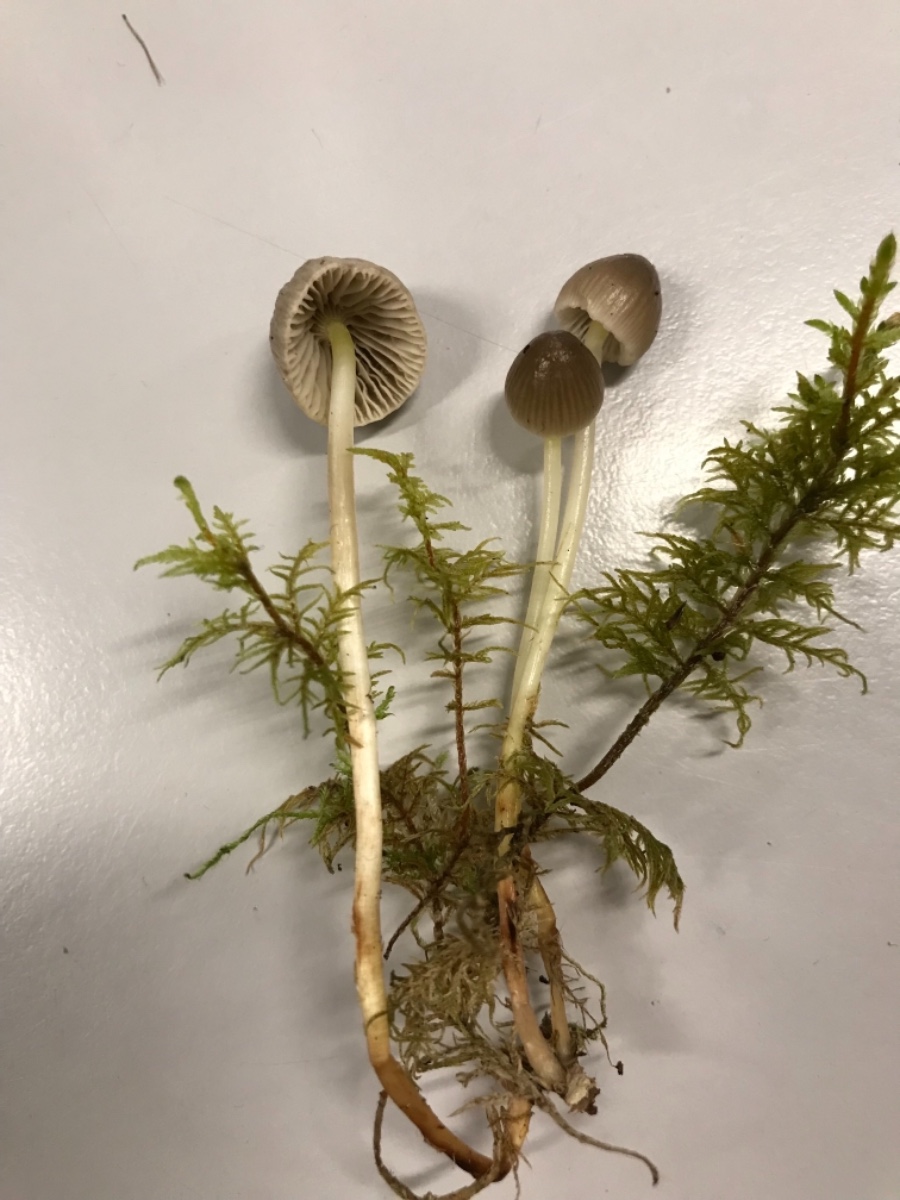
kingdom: Fungi
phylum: Basidiomycota
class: Agaricomycetes
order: Agaricales
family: Mycenaceae
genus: Mycena
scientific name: Mycena epipterygia
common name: gulstokket huesvamp
